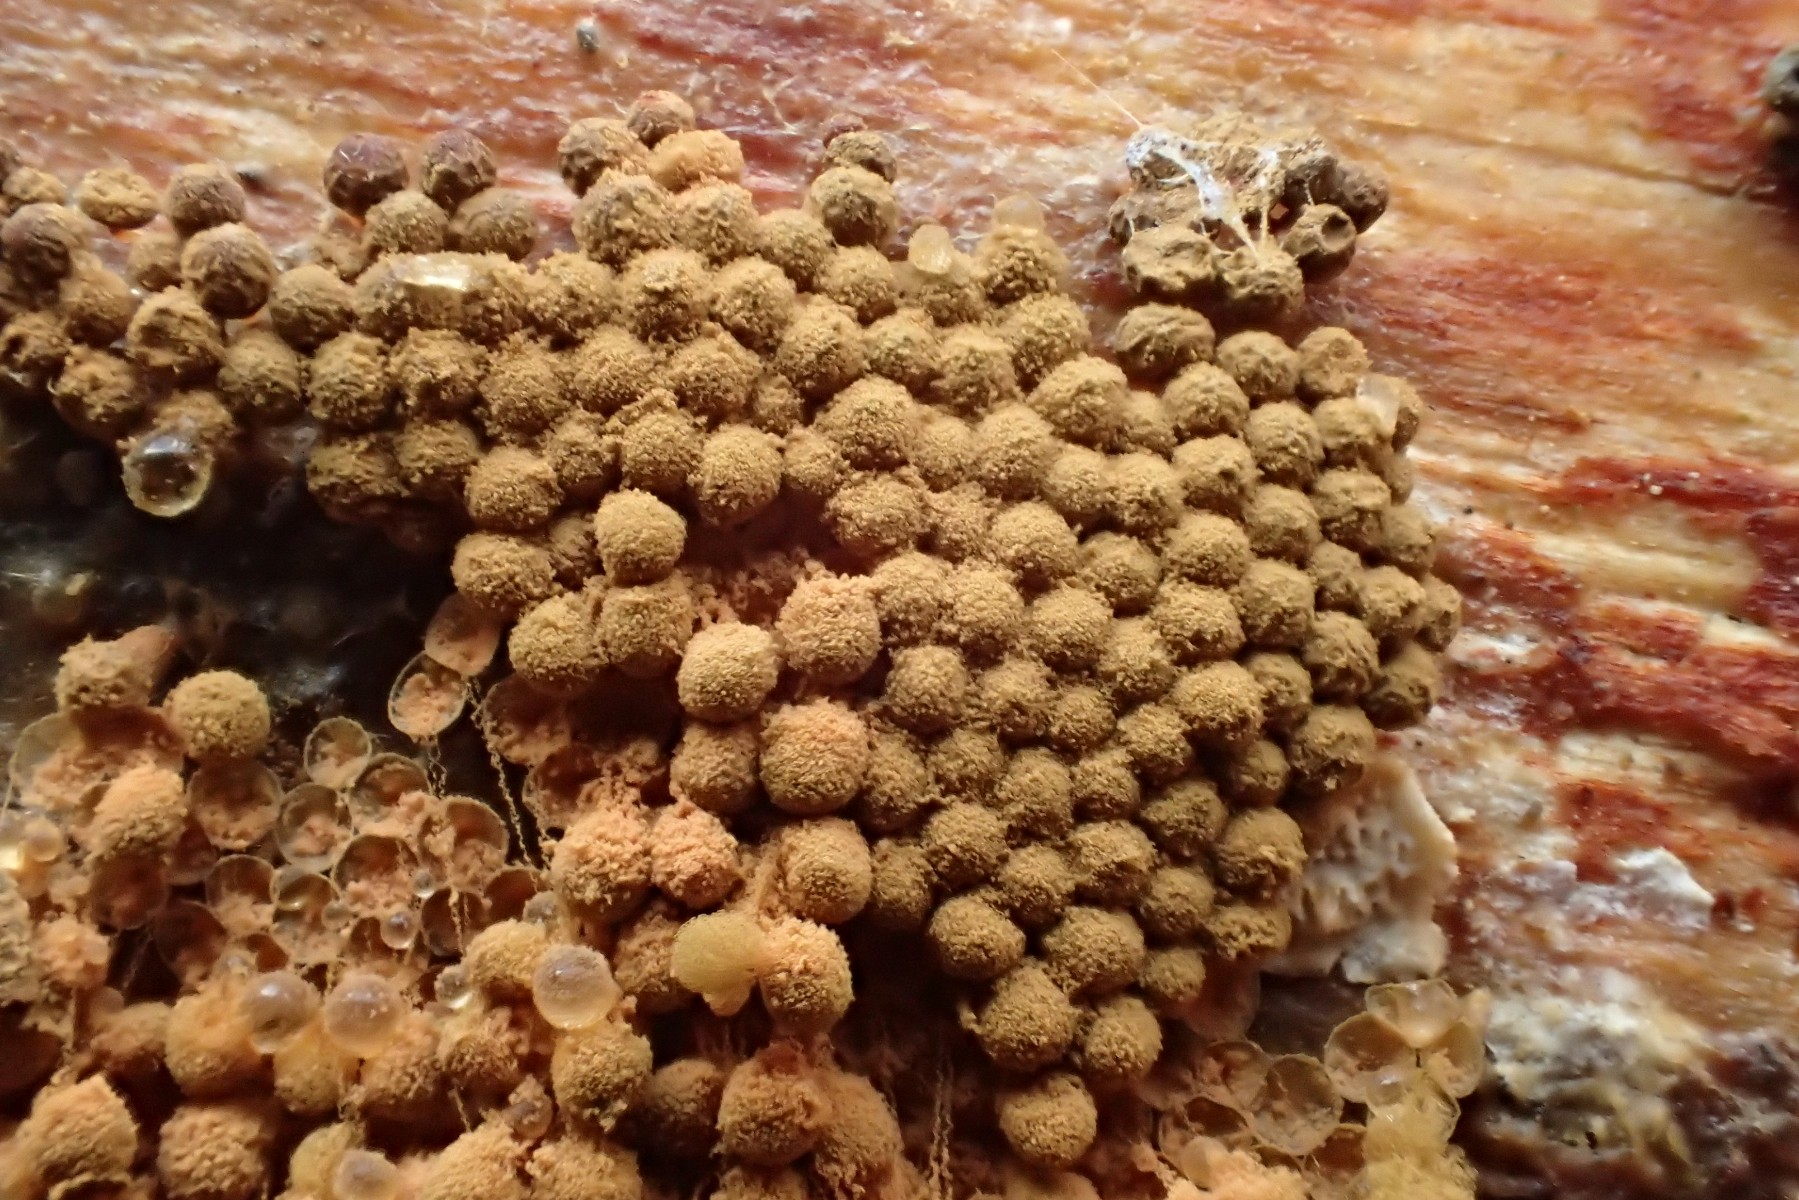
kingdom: Protozoa
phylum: Mycetozoa
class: Myxomycetes
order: Trichiales
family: Arcyriaceae
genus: Arcyria
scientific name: Arcyria ferruginea
